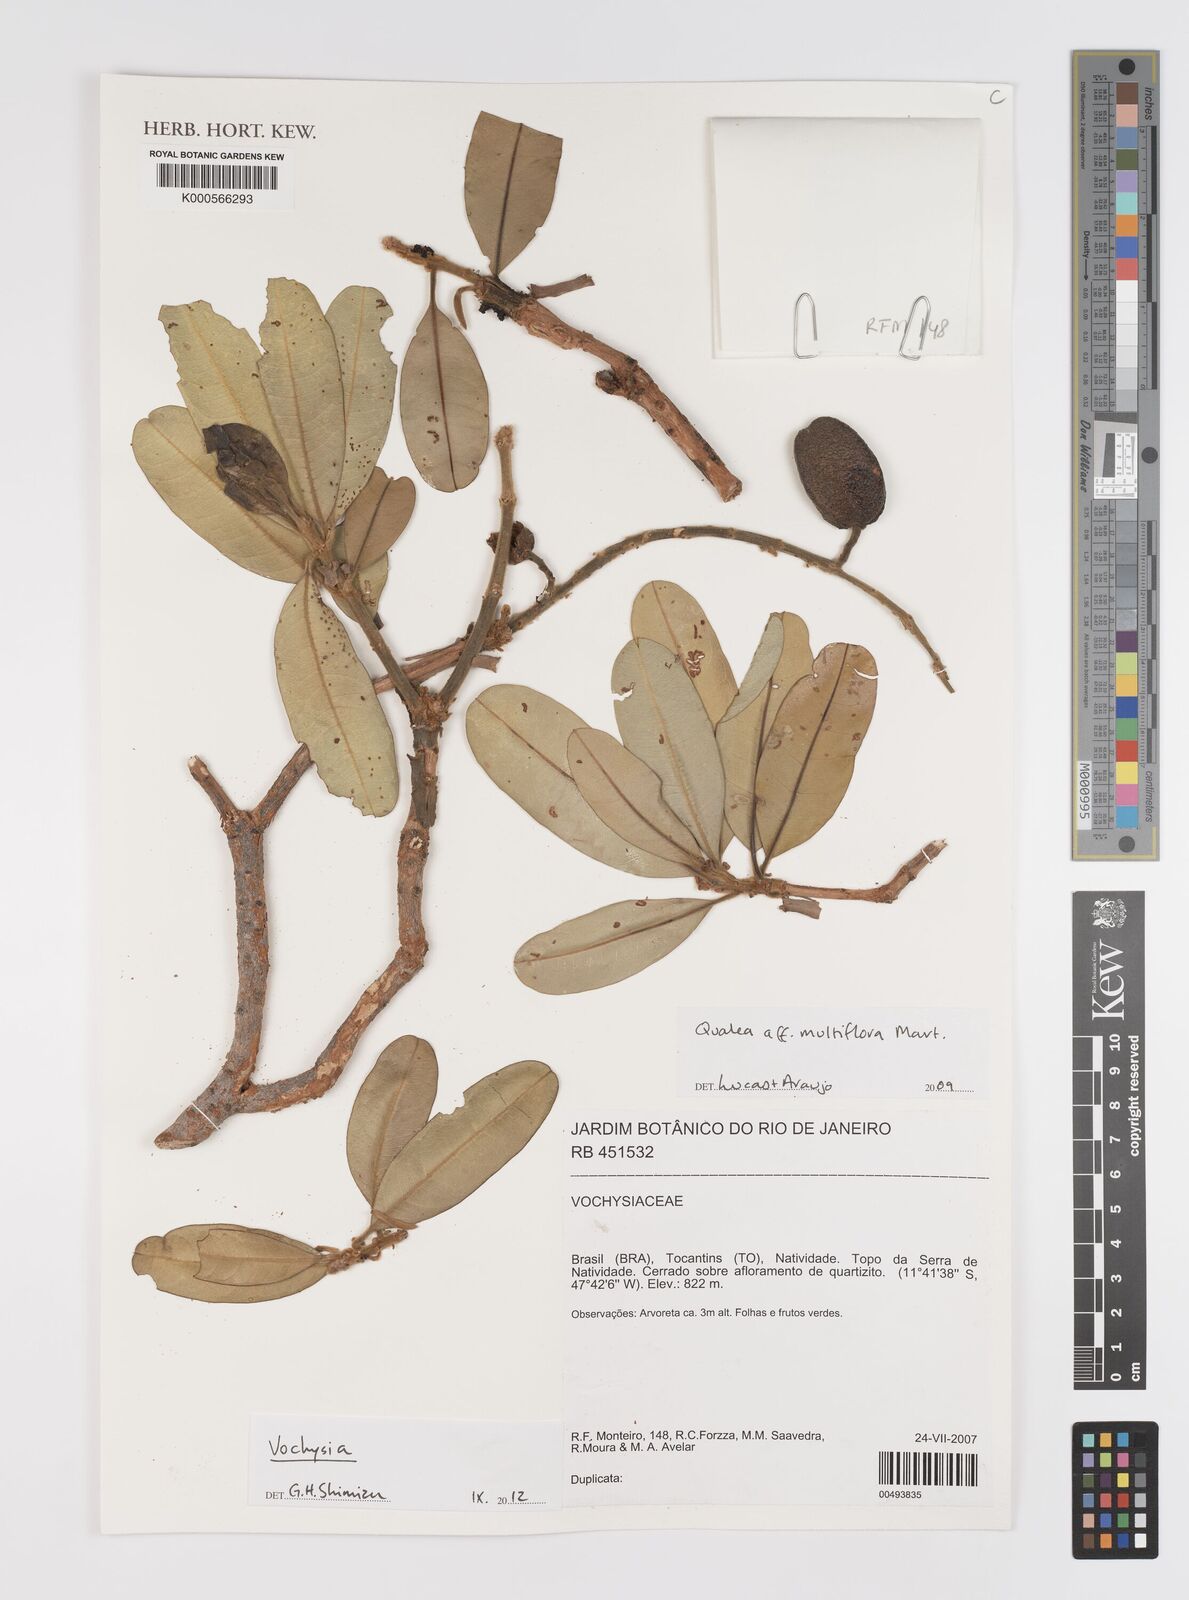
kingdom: Plantae
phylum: Tracheophyta
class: Magnoliopsida
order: Myrtales
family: Vochysiaceae
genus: Qualea
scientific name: Qualea multiflora
